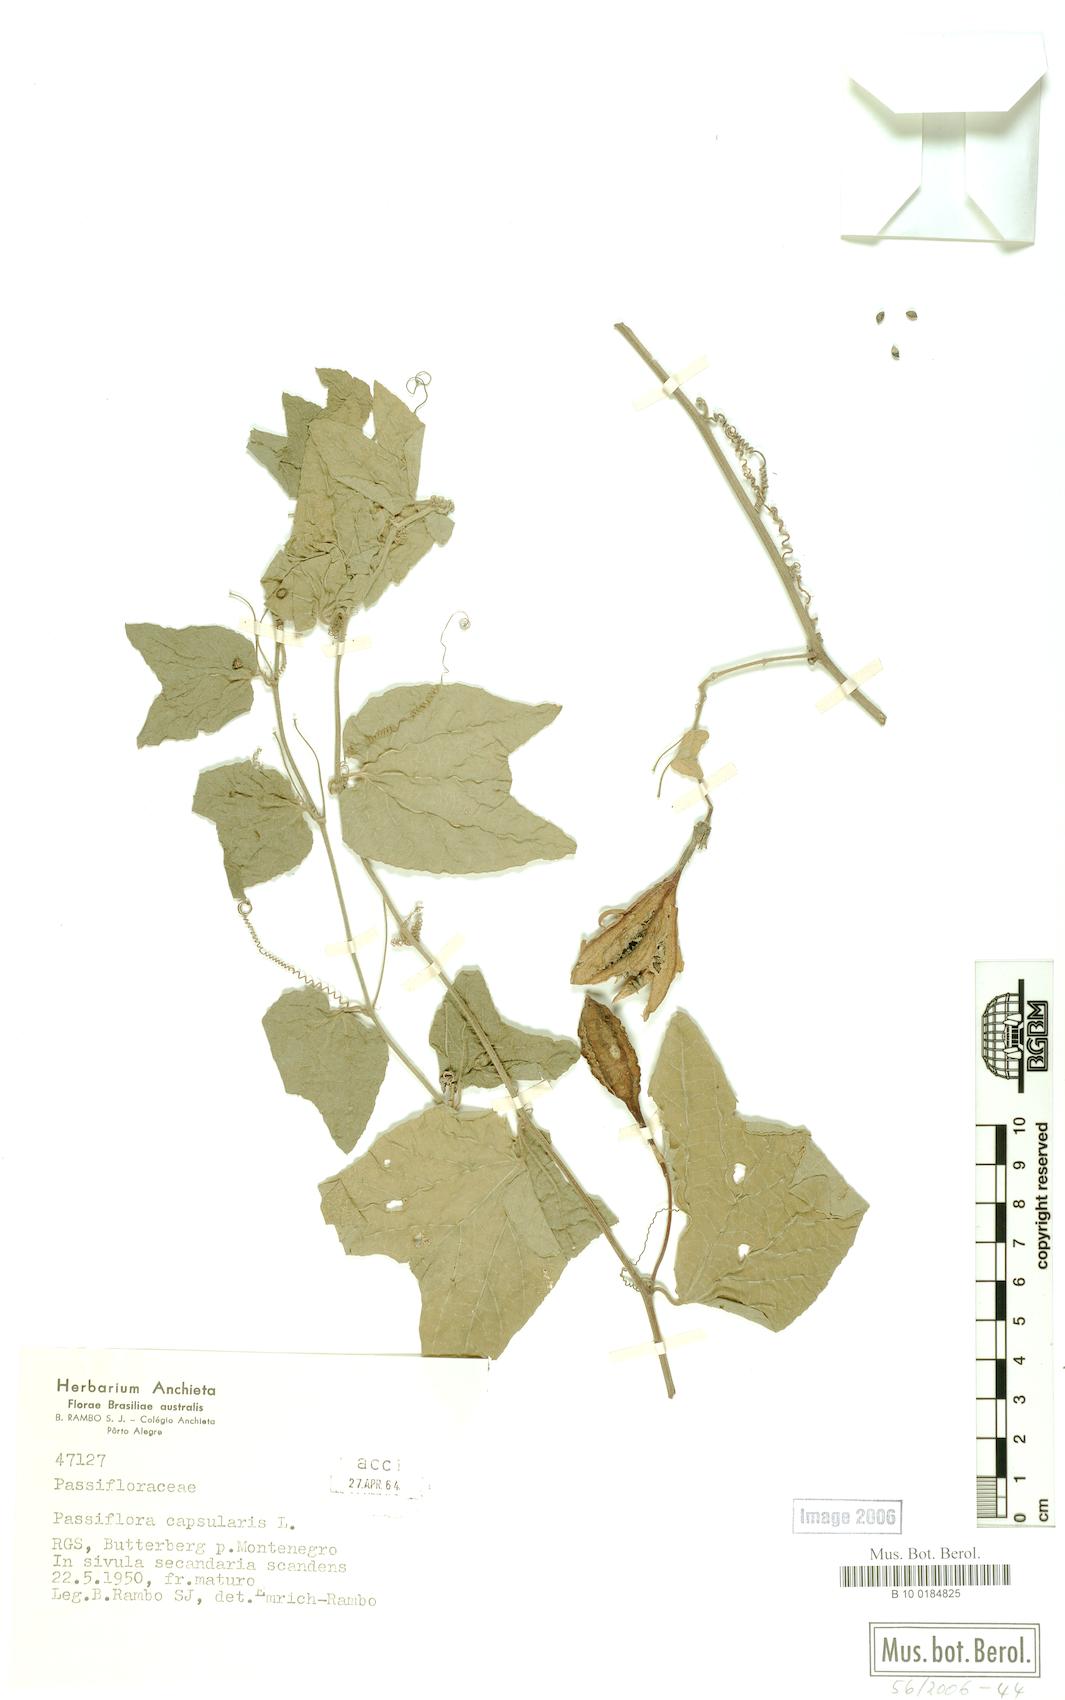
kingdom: Plantae
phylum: Tracheophyta
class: Magnoliopsida
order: Malpighiales
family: Passifloraceae
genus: Passiflora
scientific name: Passiflora capsularis
